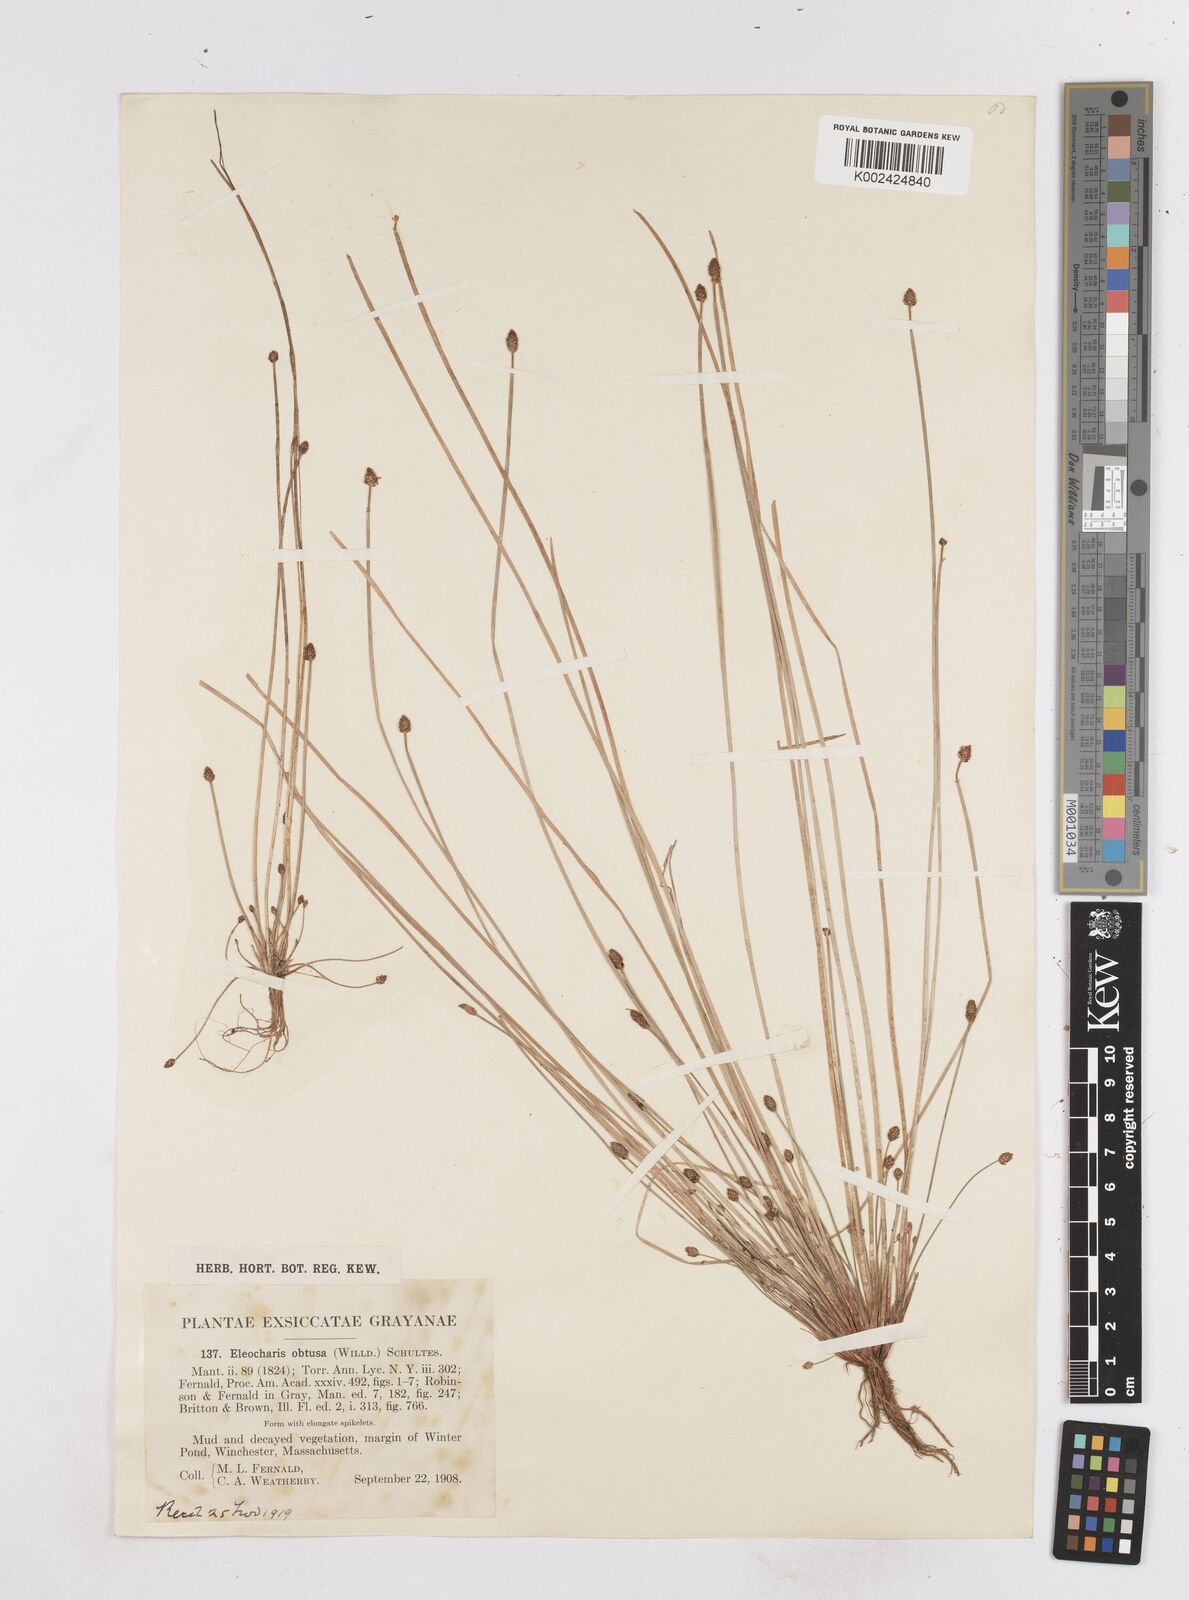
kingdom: Plantae
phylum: Tracheophyta
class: Liliopsida
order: Poales
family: Cyperaceae
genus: Eleocharis
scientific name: Eleocharis obtusa
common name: Blunt spikerush
